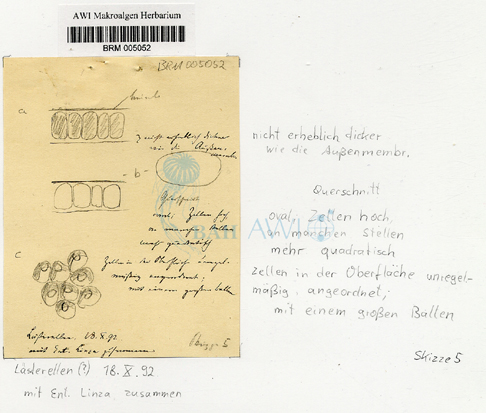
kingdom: Plantae
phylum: Chlorophyta
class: Ulvophyceae
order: Ulvales
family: Ulvaceae
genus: Ulva
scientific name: Ulva
